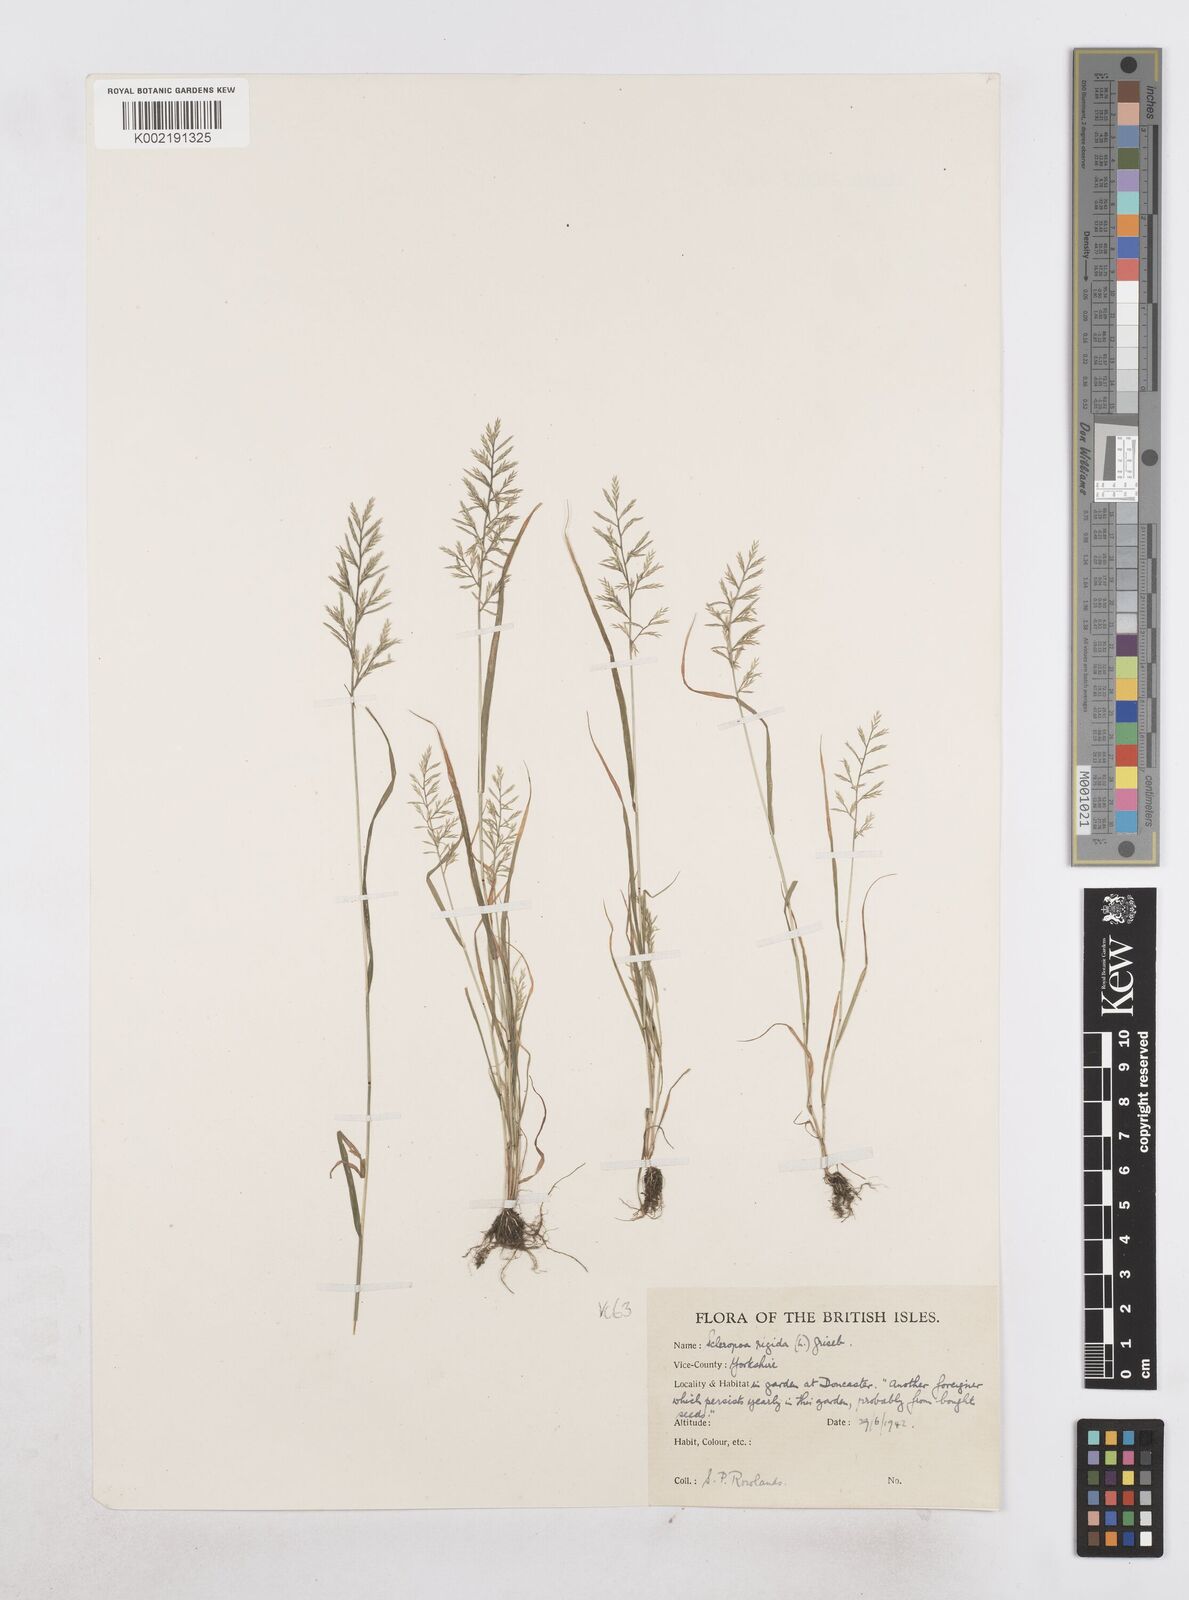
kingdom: Plantae
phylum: Tracheophyta
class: Liliopsida
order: Poales
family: Poaceae
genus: Catapodium
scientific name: Catapodium rigidum
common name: Fern-grass
